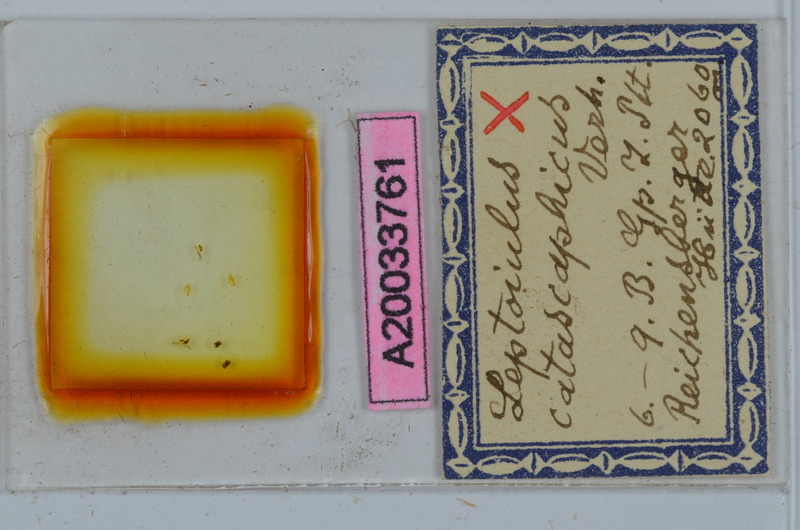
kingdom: Animalia
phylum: Arthropoda
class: Diplopoda
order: Julida
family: Julidae
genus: Leptoiulus
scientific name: Leptoiulus montivagus
